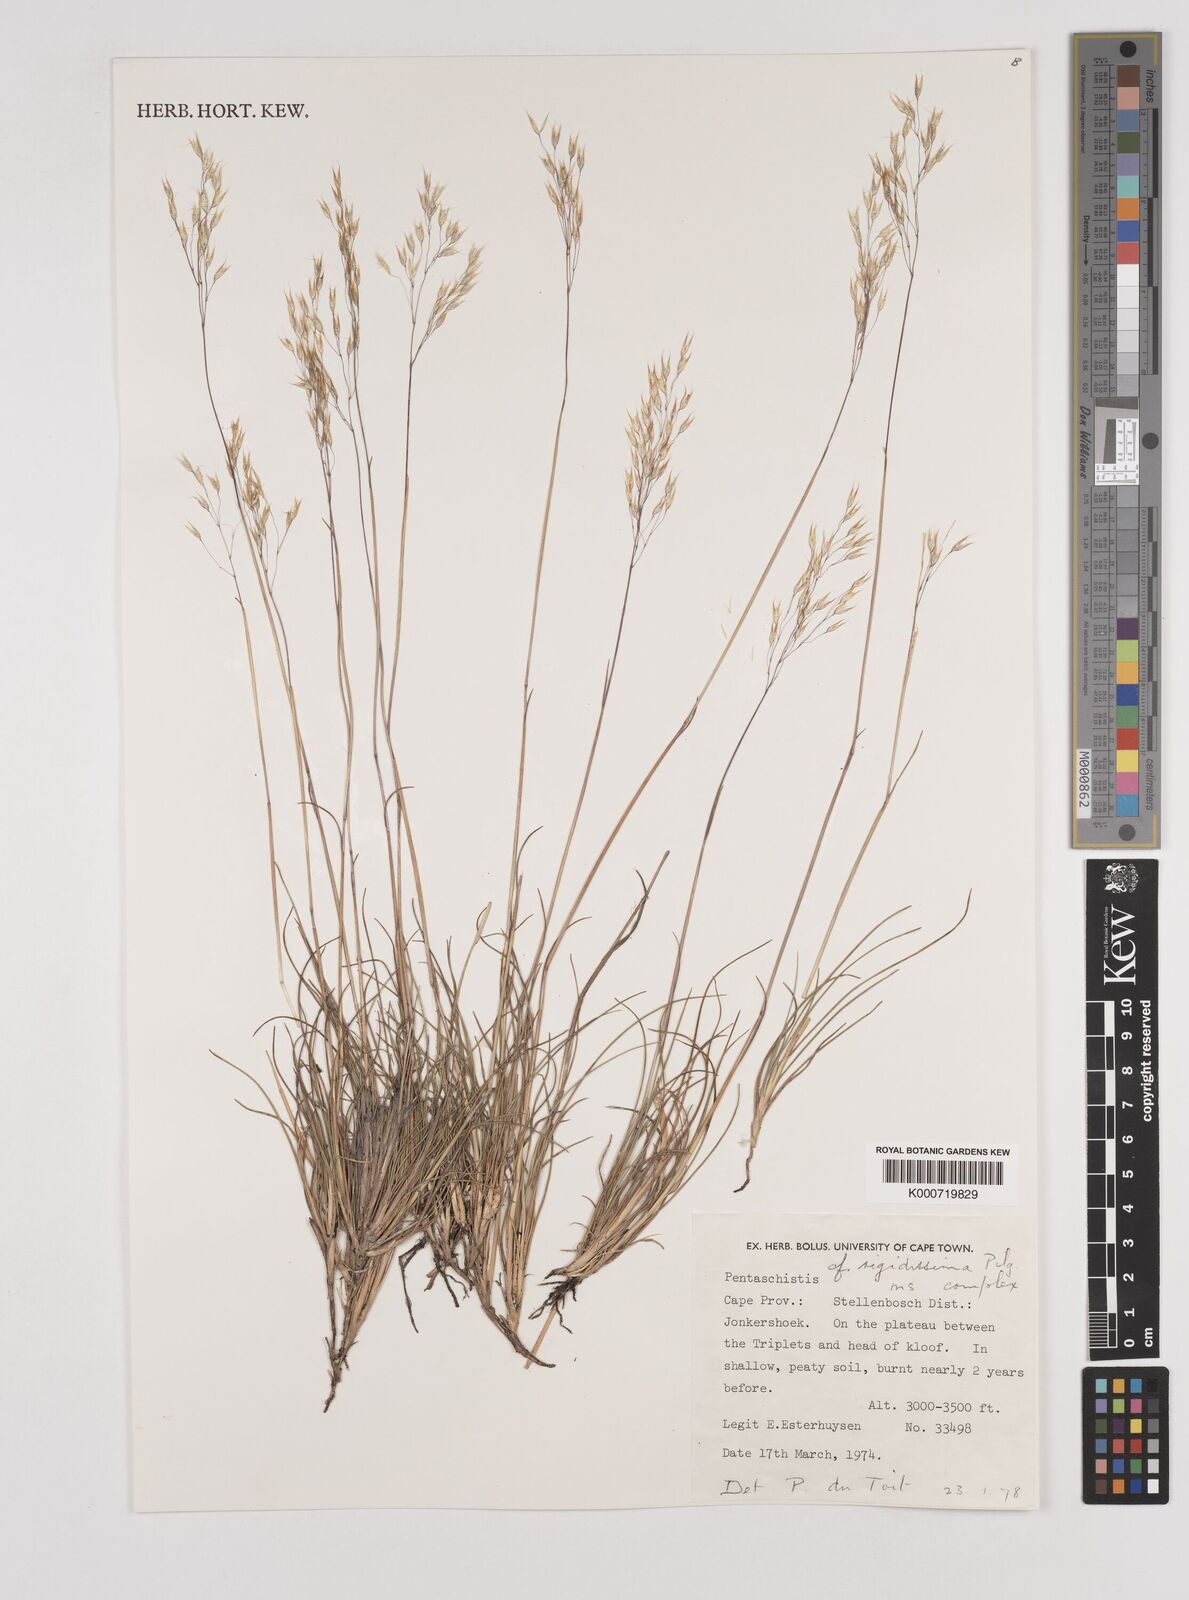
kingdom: Plantae
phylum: Tracheophyta
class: Liliopsida
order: Poales
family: Poaceae
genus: Pentaschistis
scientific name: Pentaschistis
